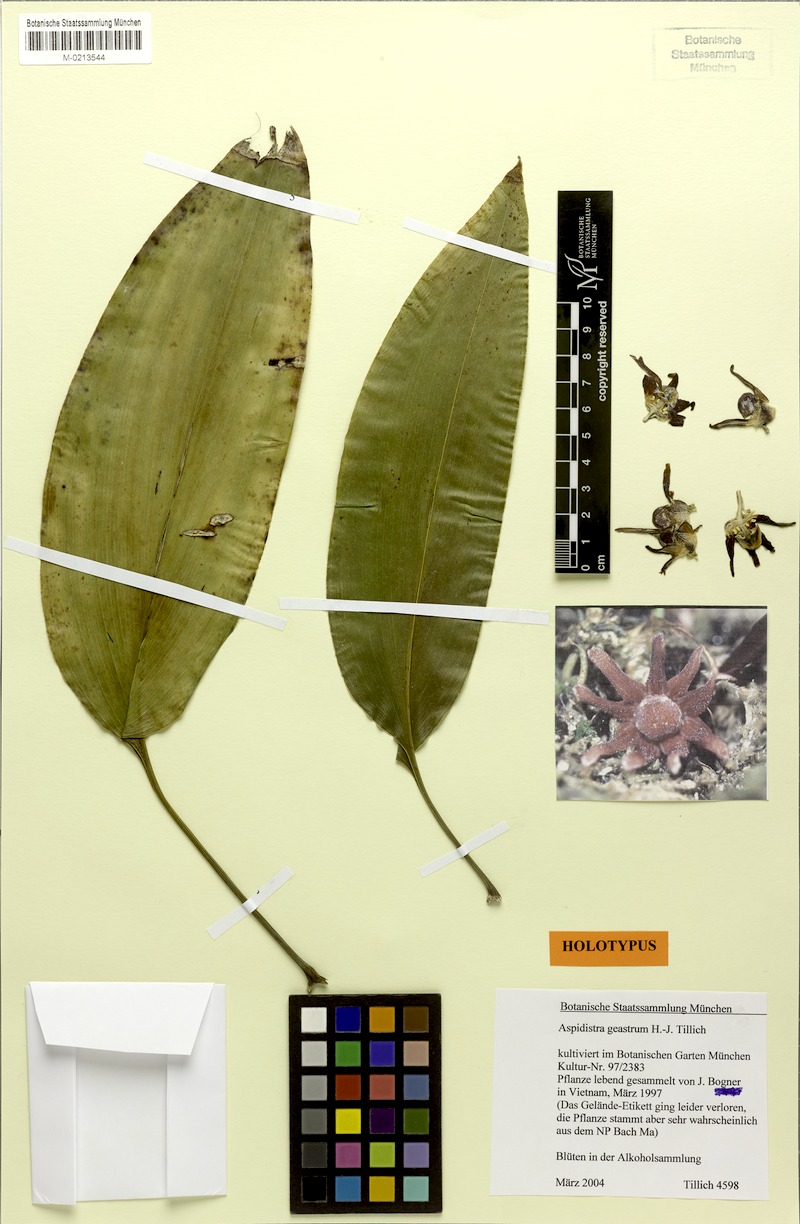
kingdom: Plantae
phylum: Tracheophyta
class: Liliopsida
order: Asparagales
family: Asparagaceae
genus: Aspidistra
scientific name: Aspidistra geastrum
